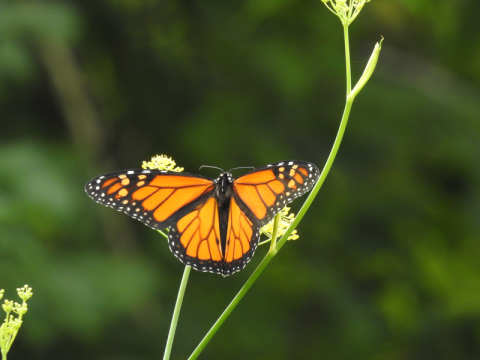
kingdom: Animalia
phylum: Arthropoda
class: Insecta
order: Lepidoptera
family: Nymphalidae
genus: Danaus
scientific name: Danaus plexippus
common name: Monarch
